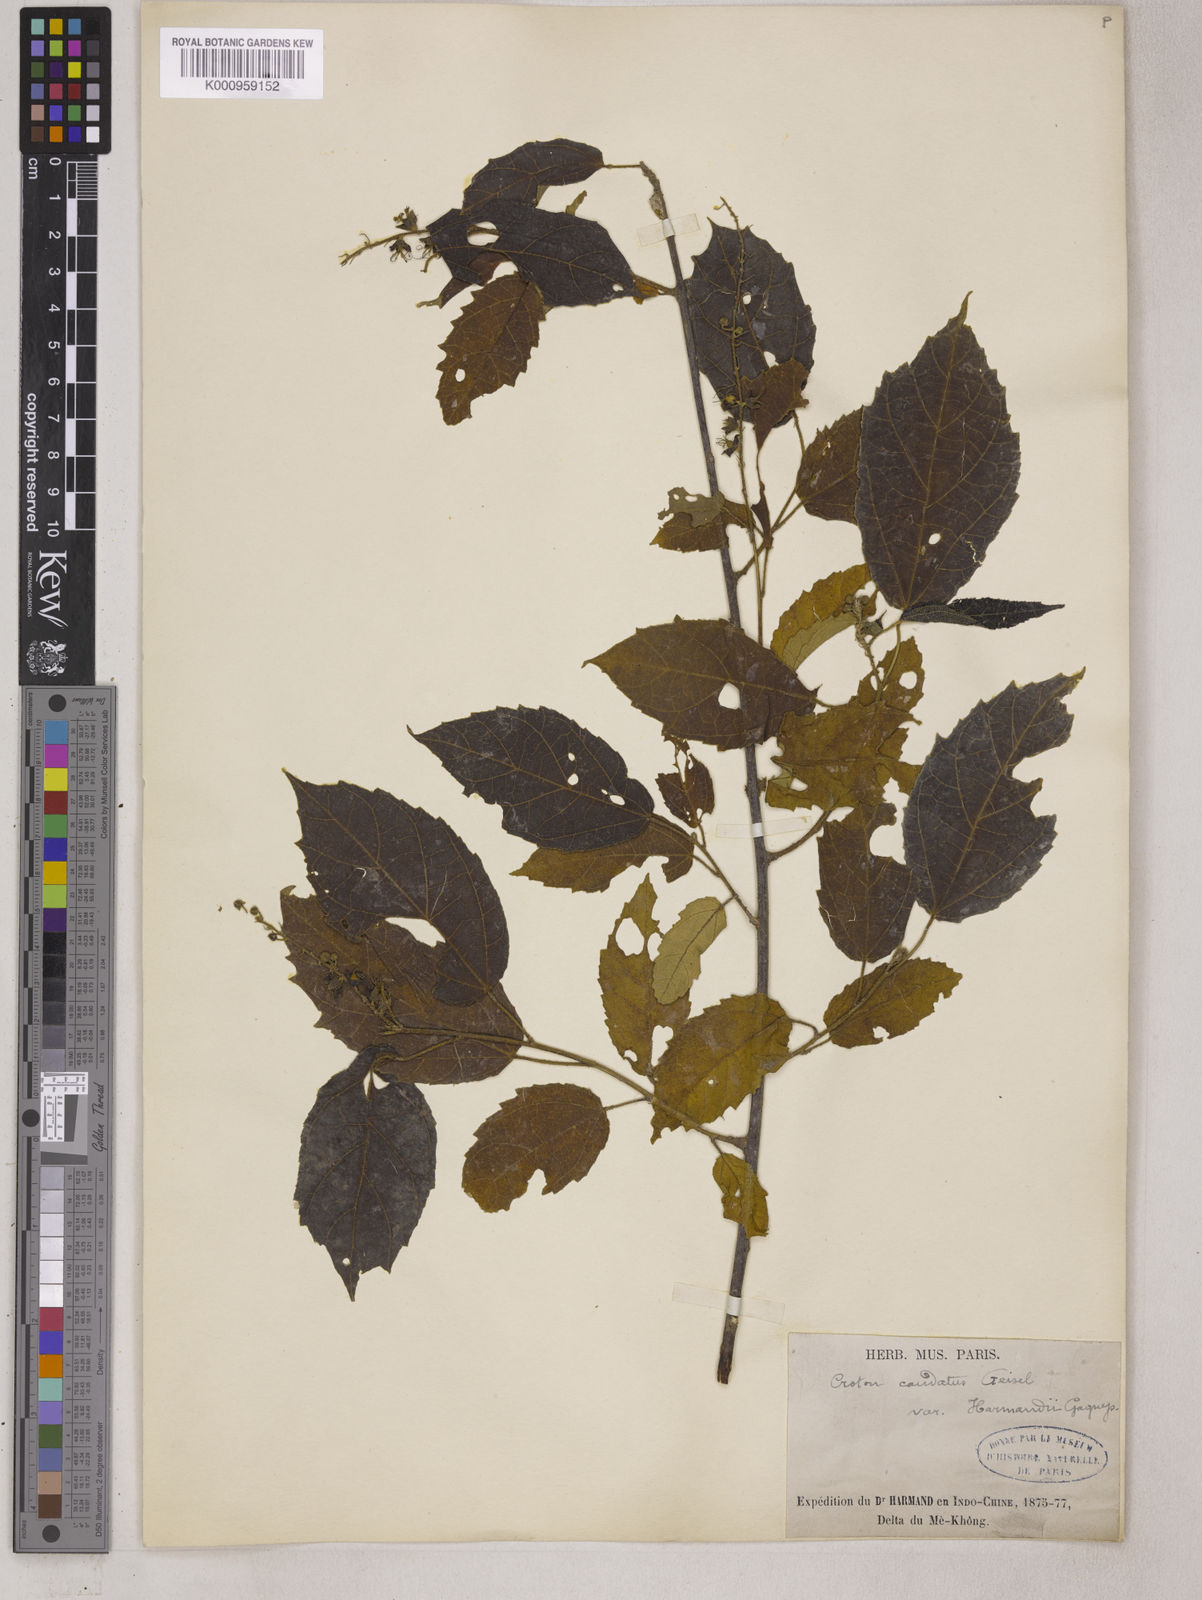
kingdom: Plantae
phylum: Tracheophyta
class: Magnoliopsida
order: Malpighiales
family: Euphorbiaceae
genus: Croton
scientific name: Croton caudatus
